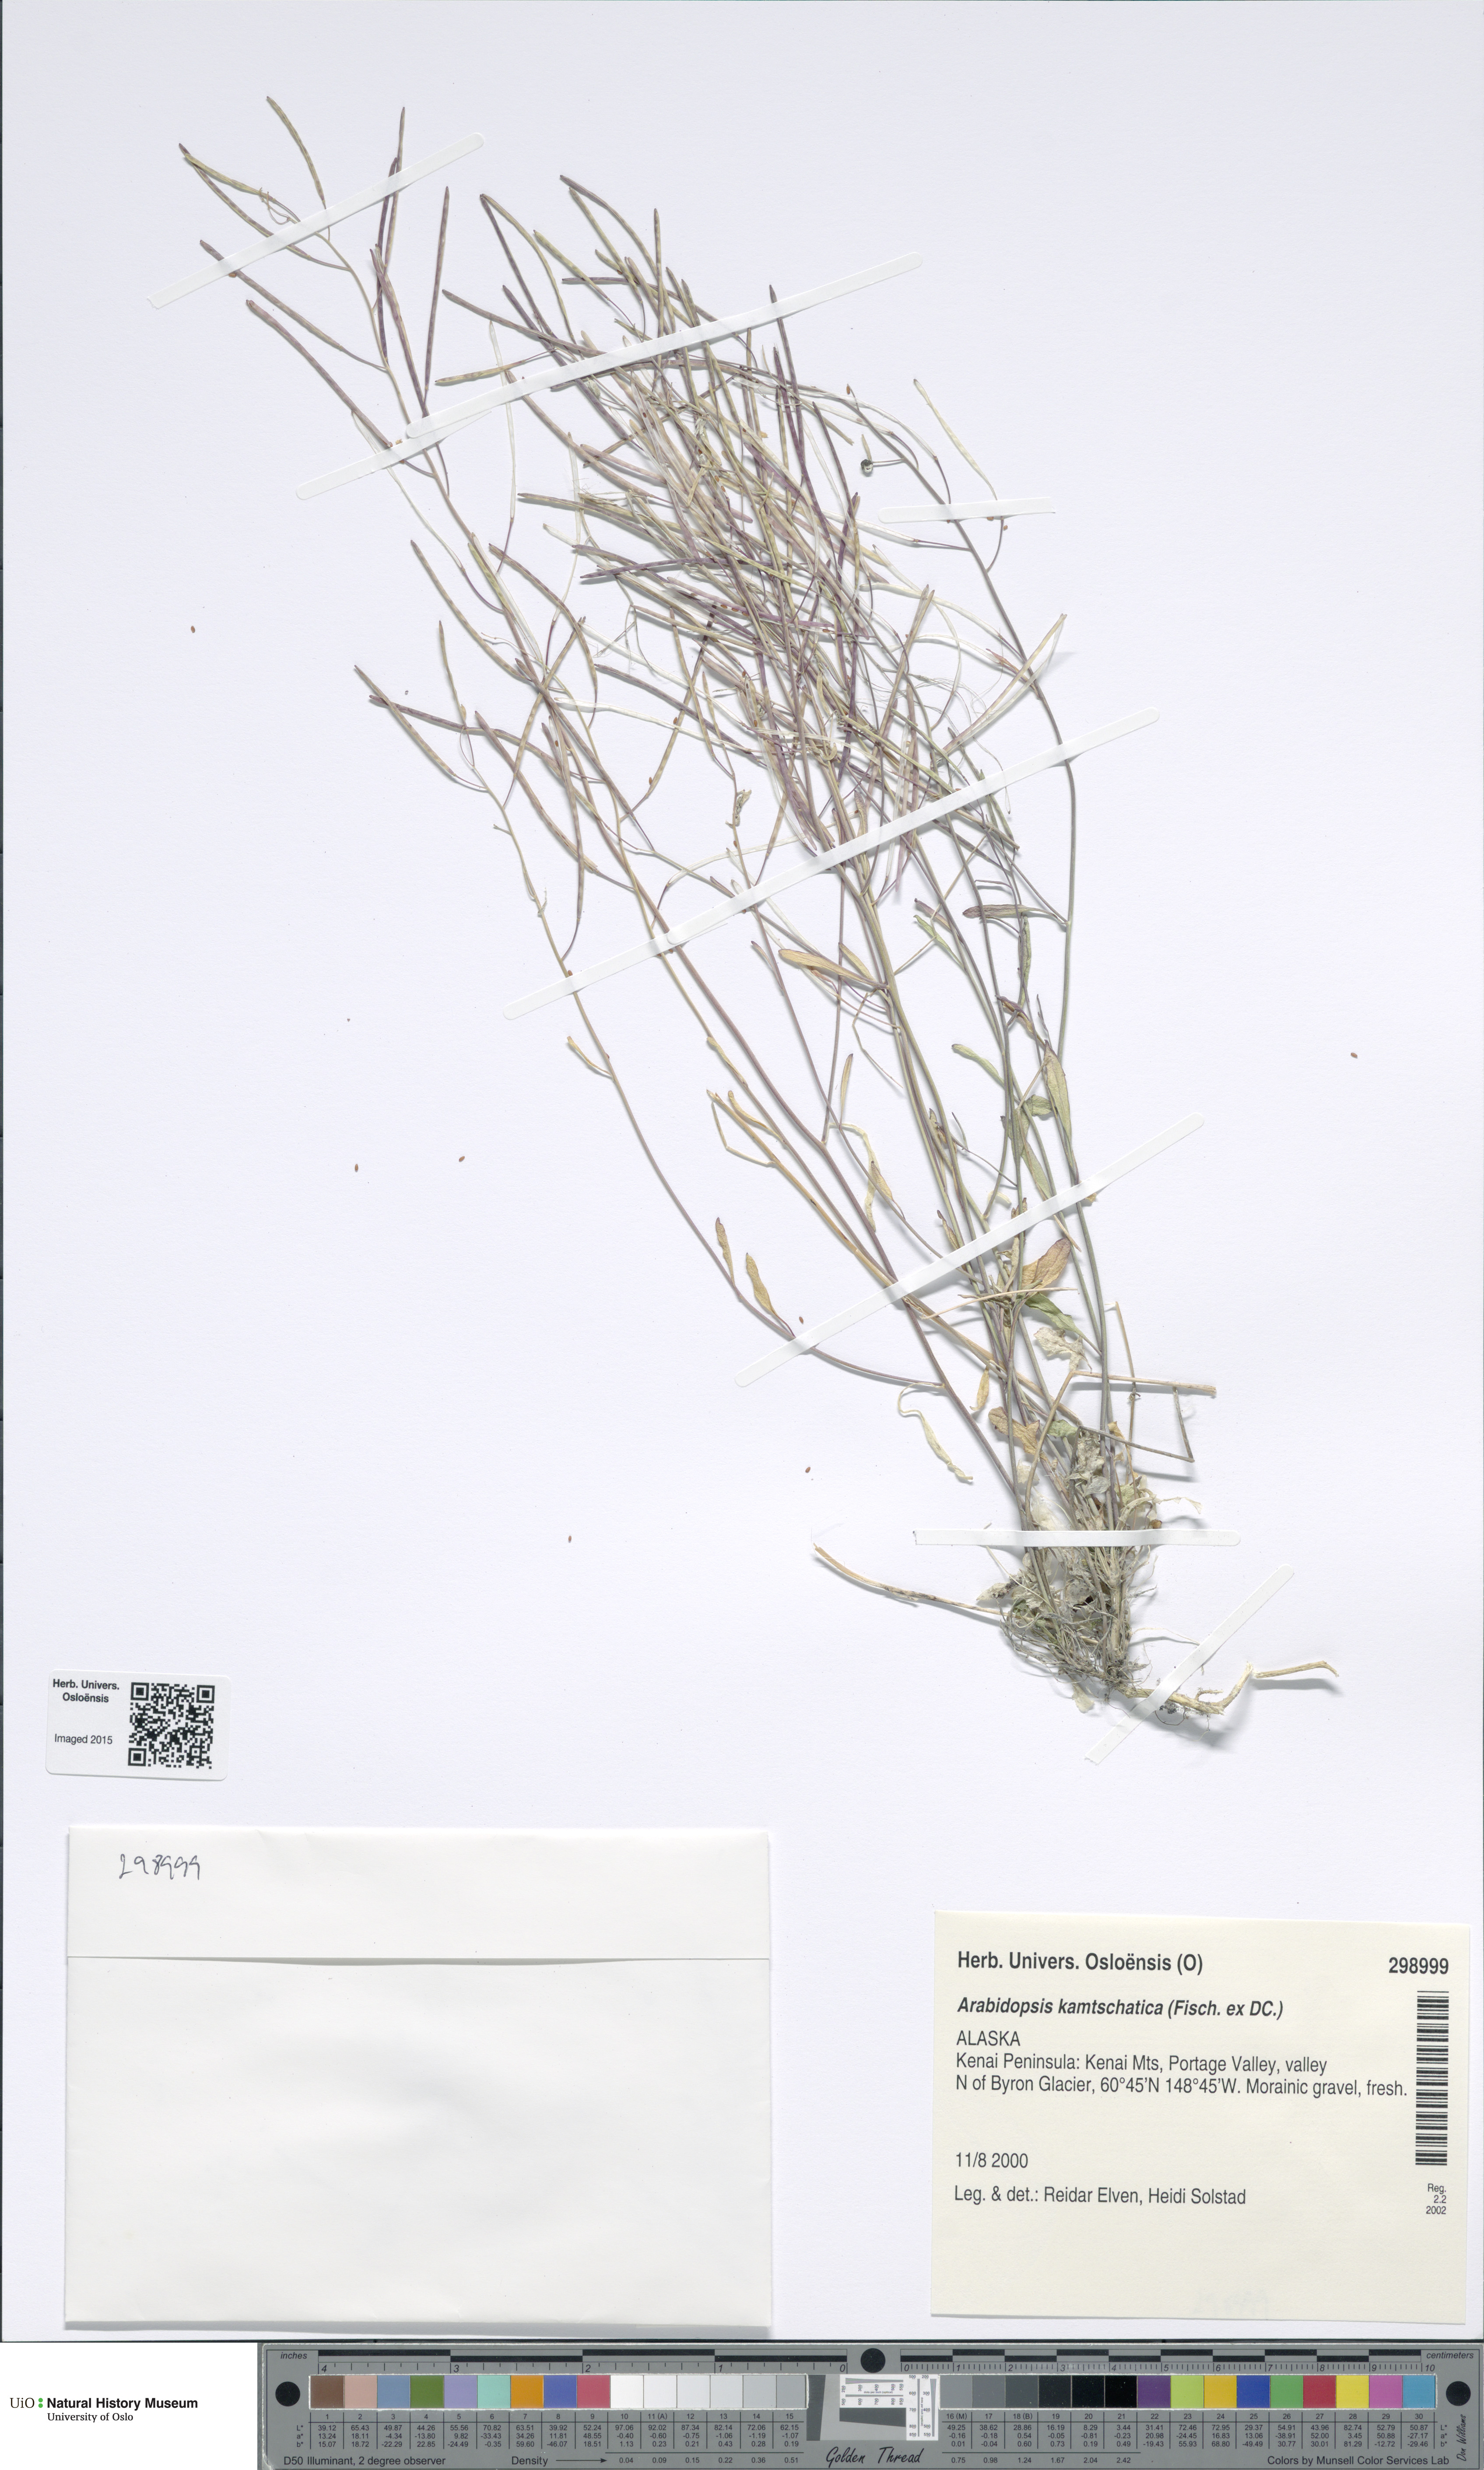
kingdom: Plantae
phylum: Tracheophyta
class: Magnoliopsida
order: Brassicales
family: Brassicaceae
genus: Arabidopsis
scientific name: Arabidopsis lyrata
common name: Lyrate rockcress
